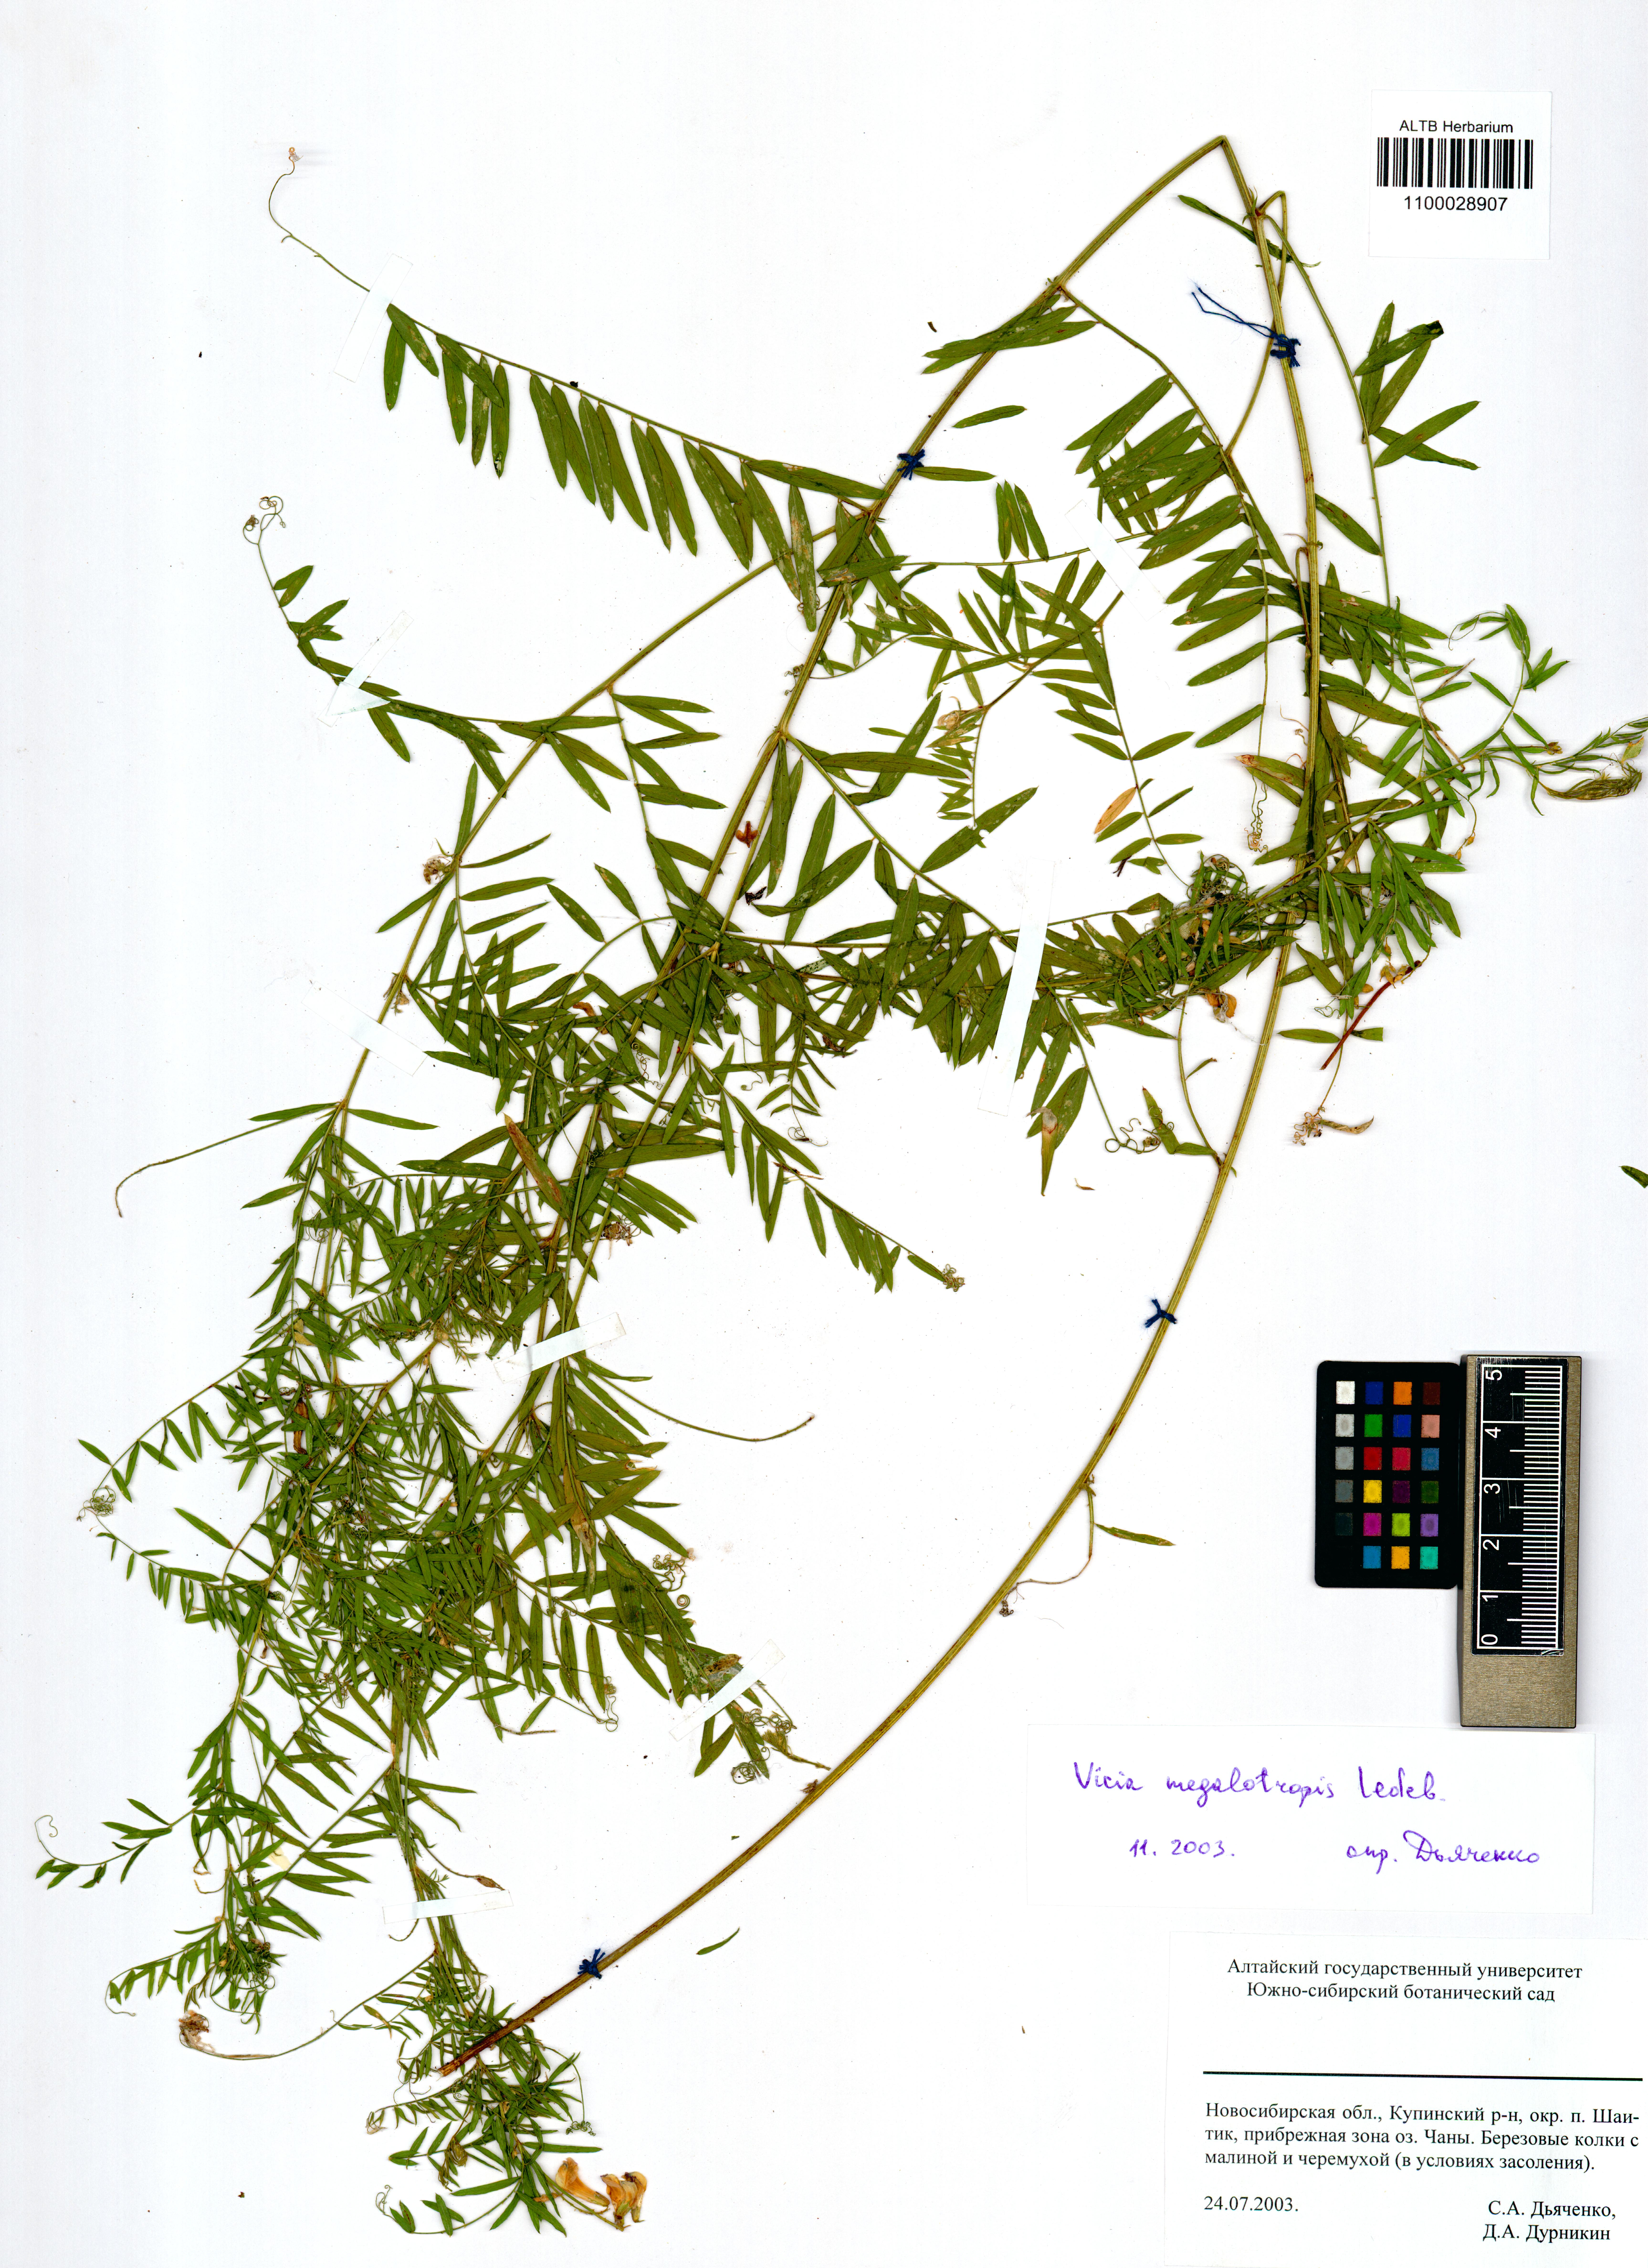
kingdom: Plantae
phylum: Tracheophyta
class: Magnoliopsida
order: Fabales
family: Fabaceae
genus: Vicia
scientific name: Vicia megalotropis
